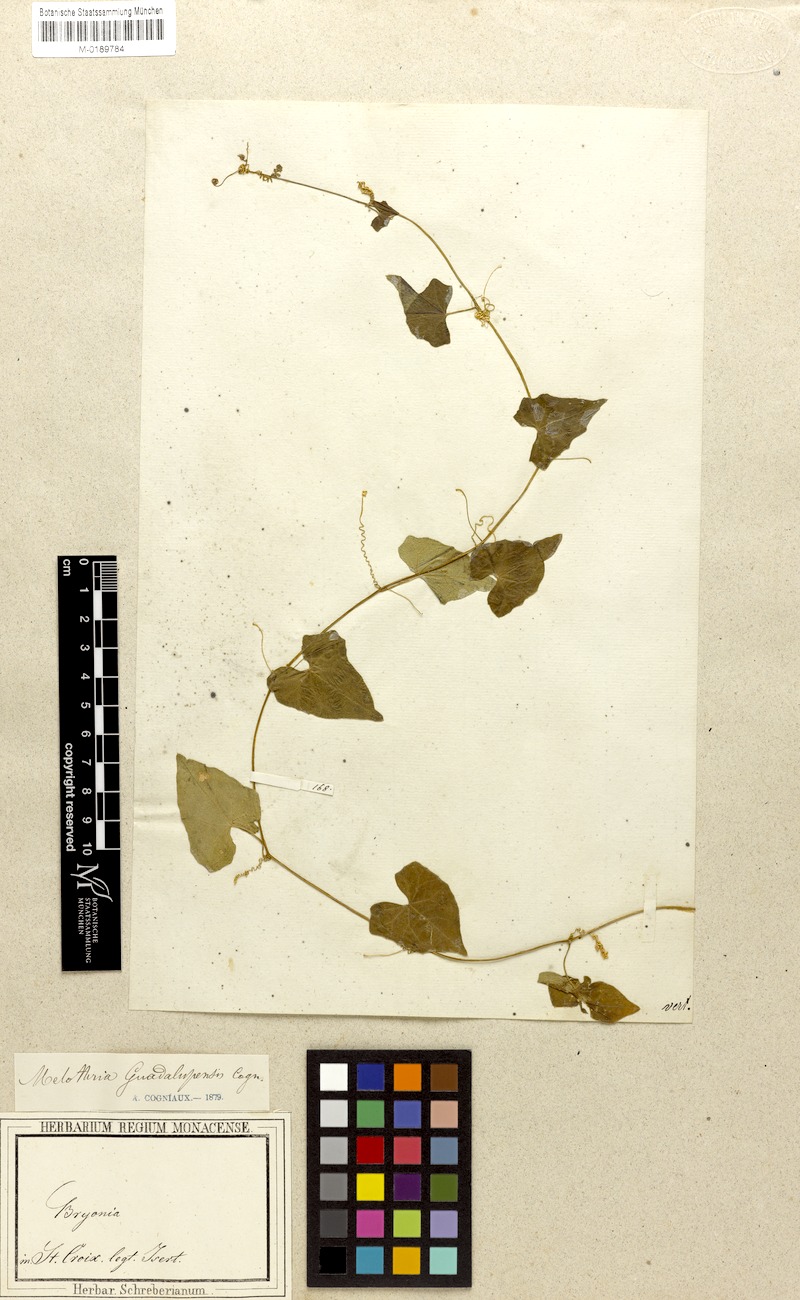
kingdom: Plantae
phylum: Tracheophyta
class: Magnoliopsida
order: Cucurbitales
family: Cucurbitaceae
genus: Melothria
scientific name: Melothria pendula
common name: Creeping-cucumber
